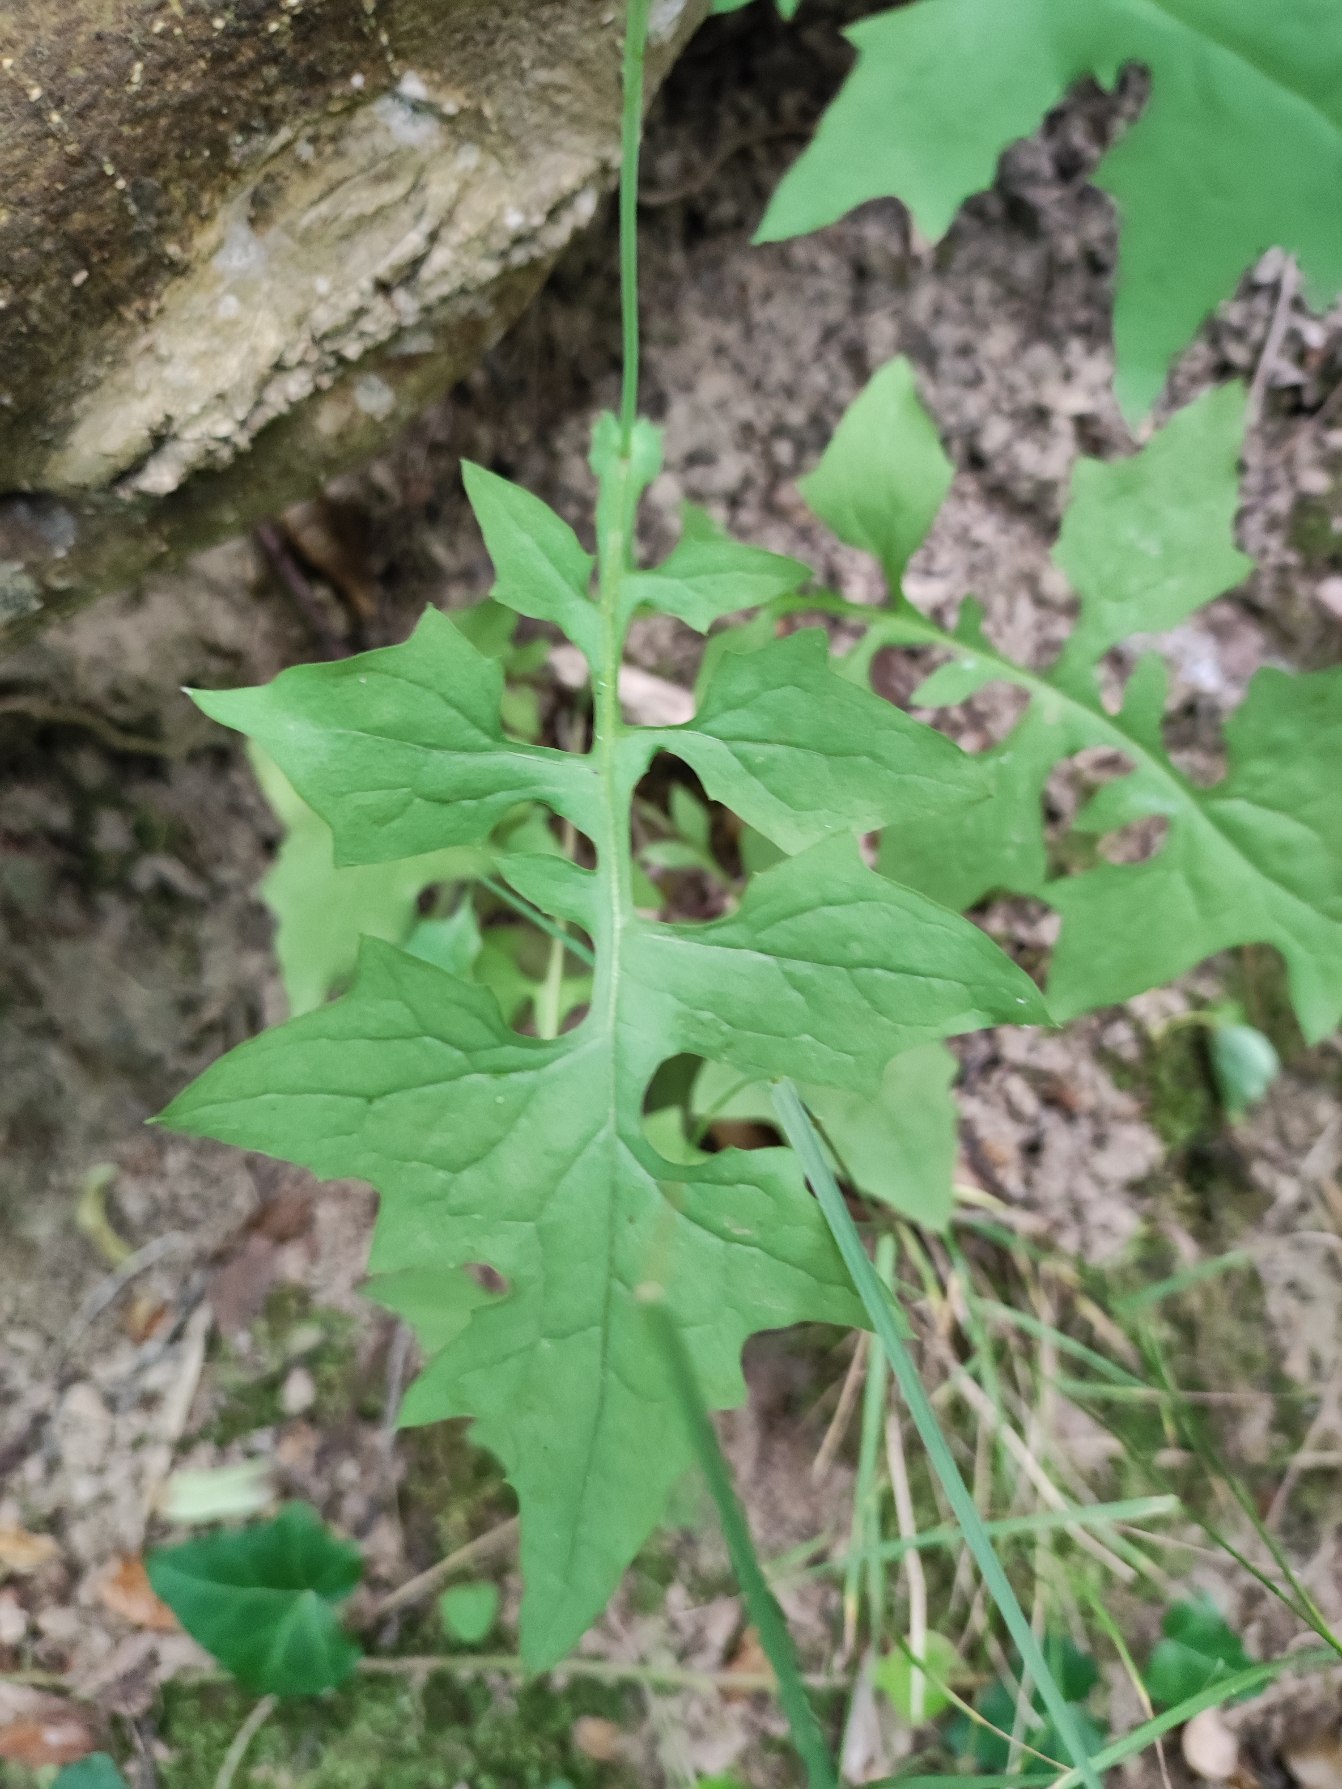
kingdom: Plantae
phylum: Tracheophyta
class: Magnoliopsida
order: Asterales
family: Asteraceae
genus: Mycelis
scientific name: Mycelis muralis
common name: Skov-salat
